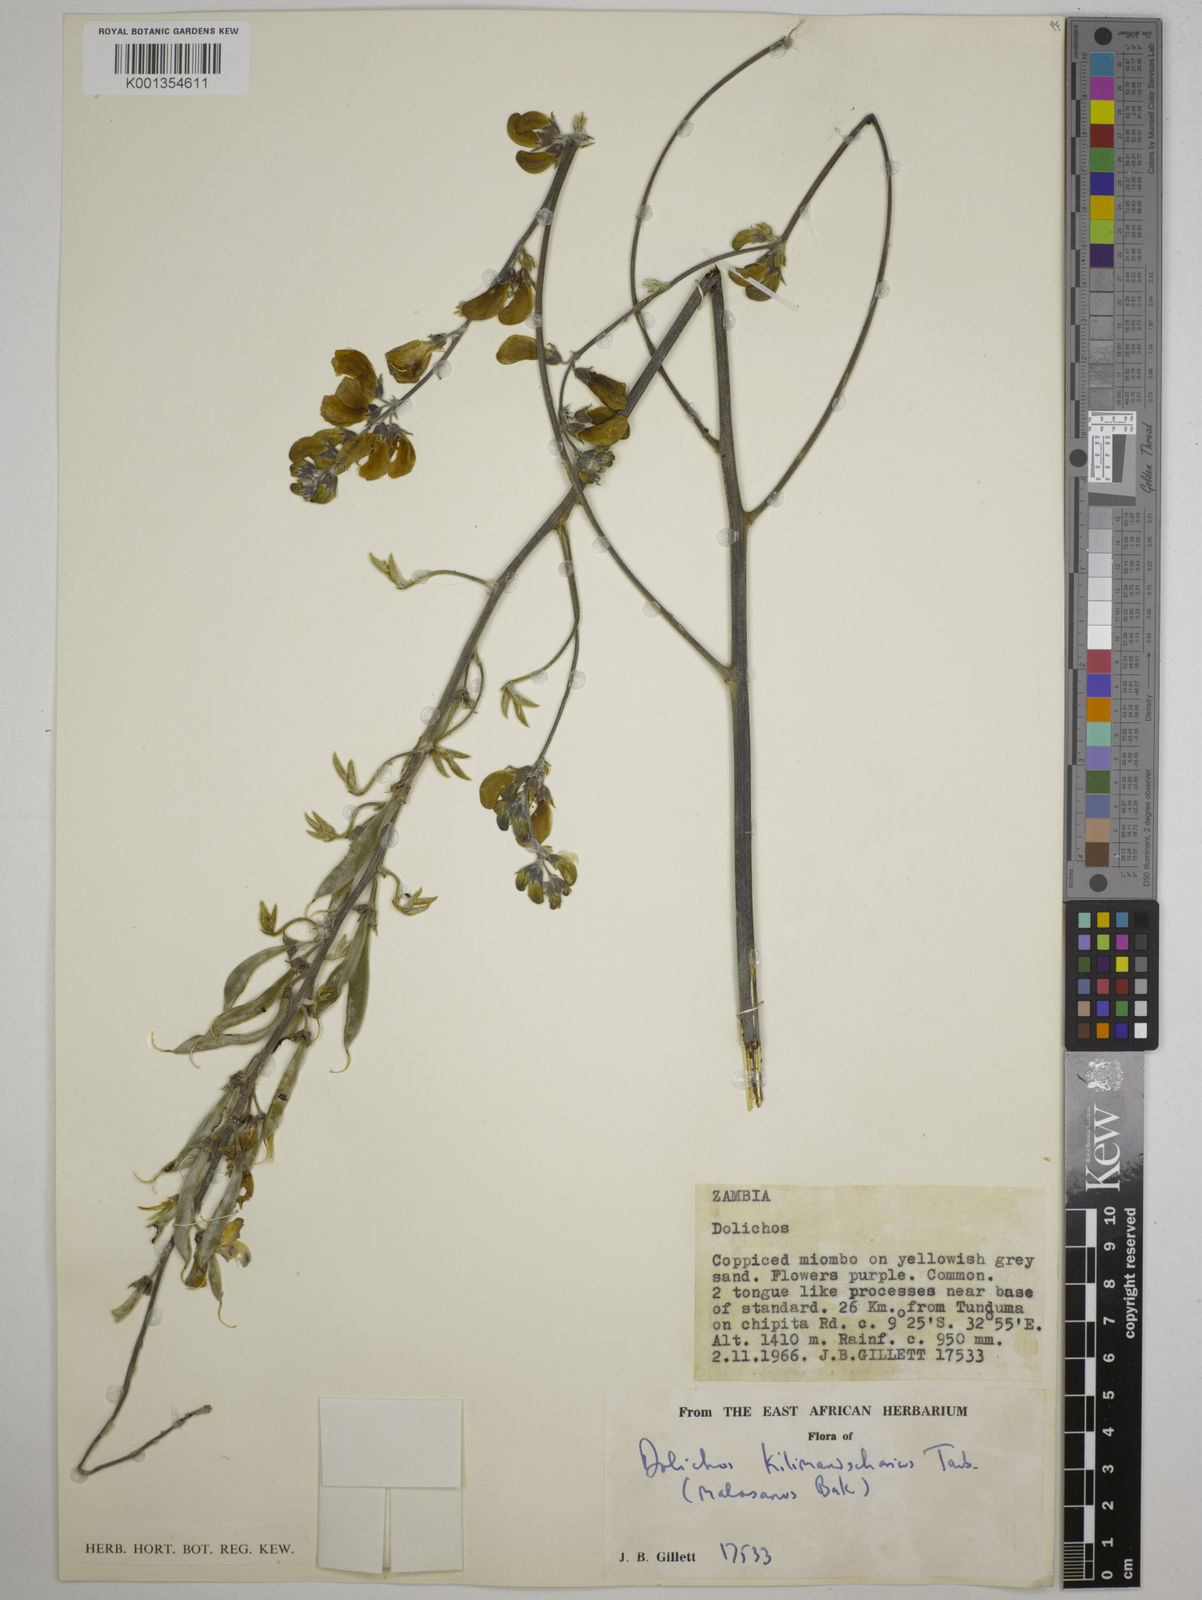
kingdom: Plantae
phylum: Tracheophyta
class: Magnoliopsida
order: Fabales
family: Fabaceae
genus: Dolichos
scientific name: Dolichos kilimandscharicus
